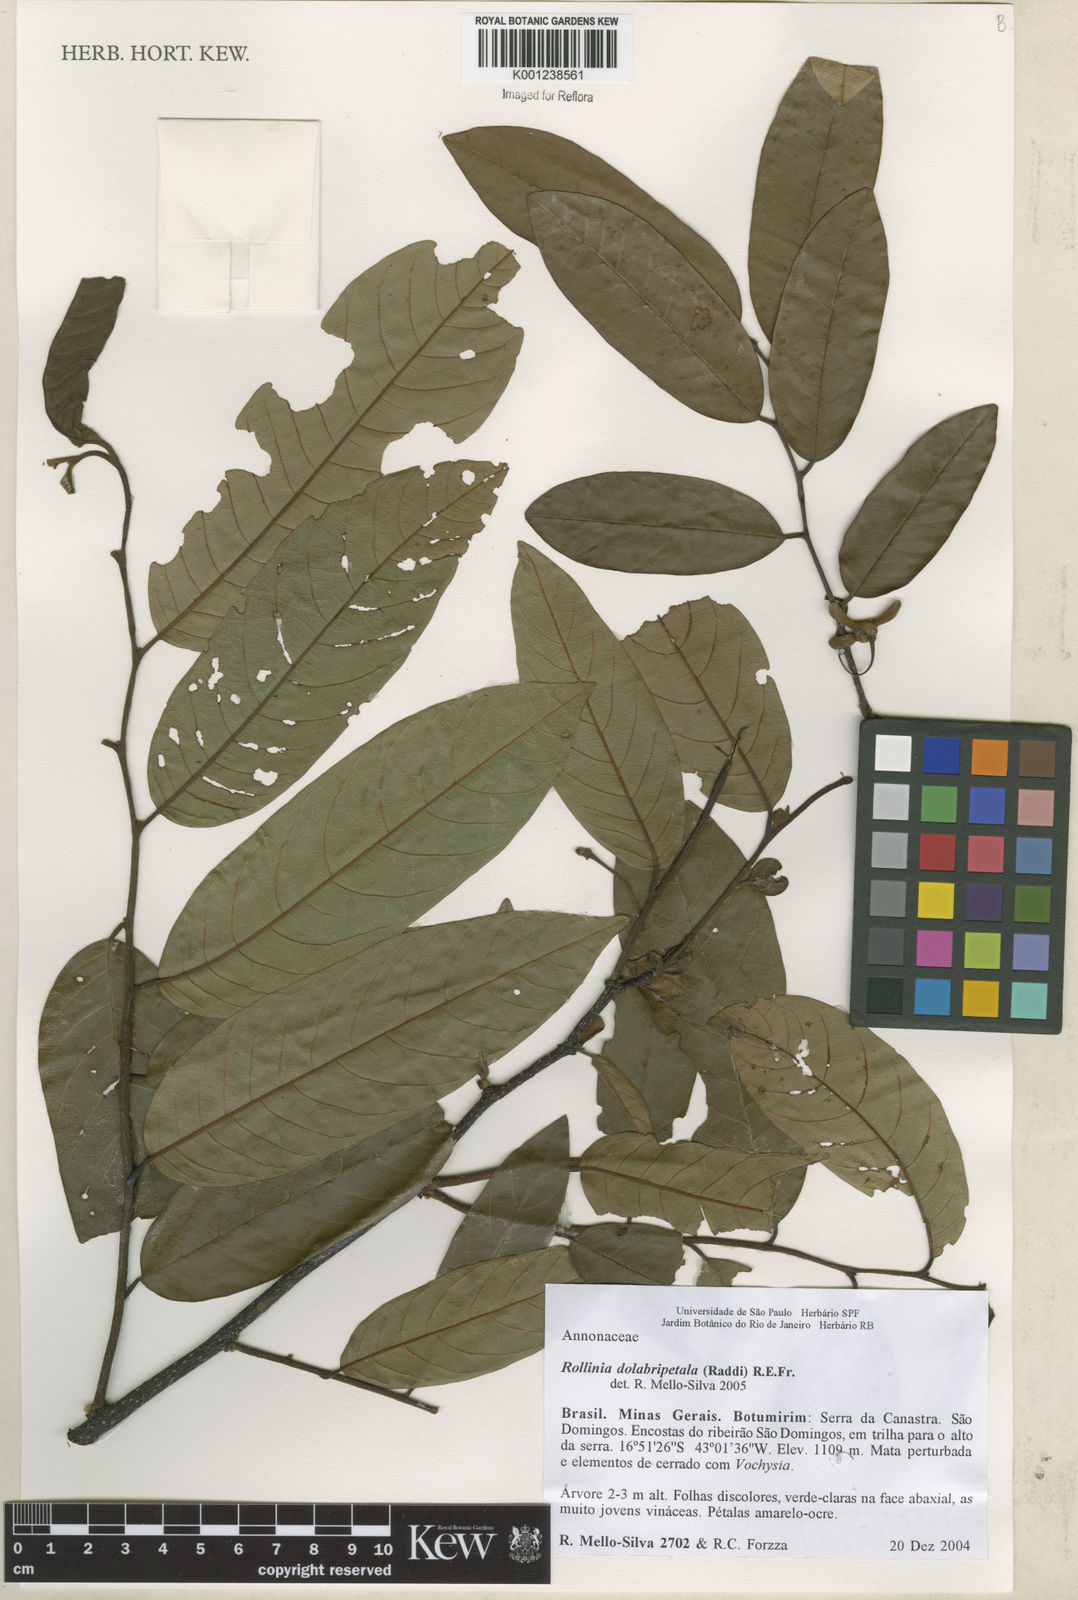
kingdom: Plantae
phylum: Tracheophyta
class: Magnoliopsida
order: Magnoliales
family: Annonaceae
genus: Annona
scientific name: Annona
